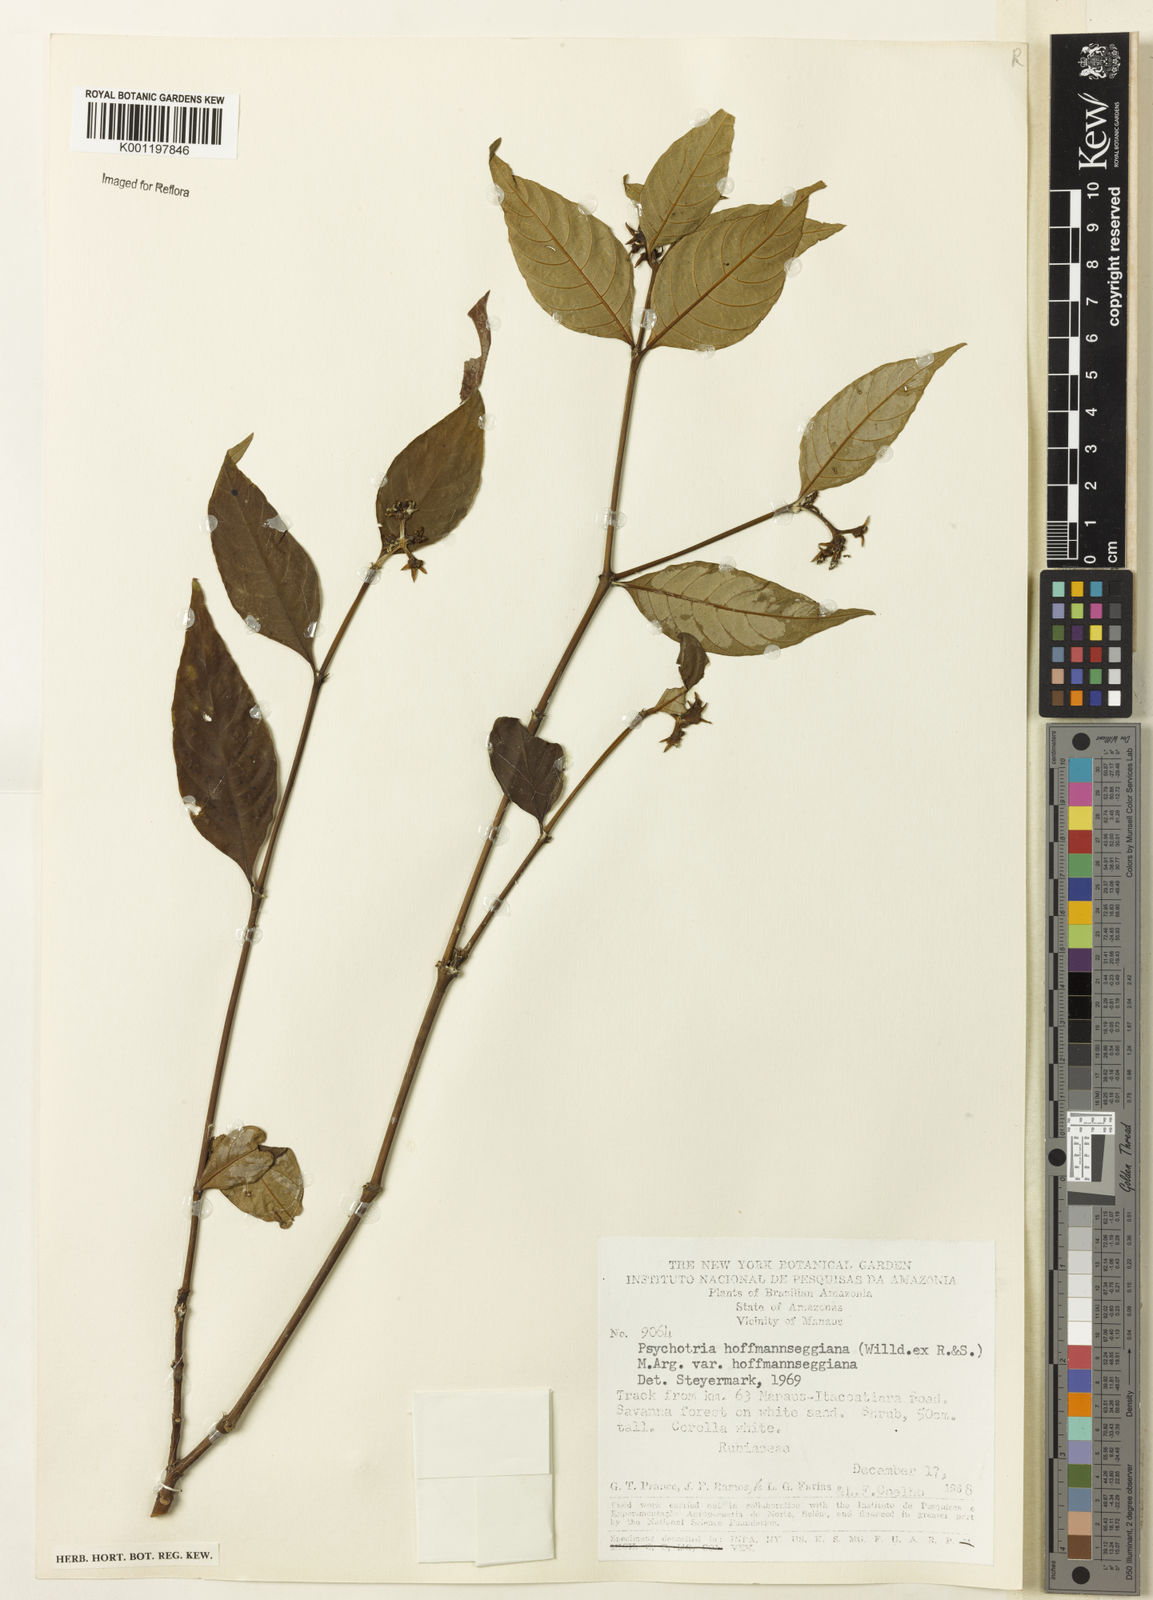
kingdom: Plantae
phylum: Tracheophyta
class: Magnoliopsida
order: Gentianales
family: Rubiaceae
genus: Psychotria
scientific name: Psychotria
